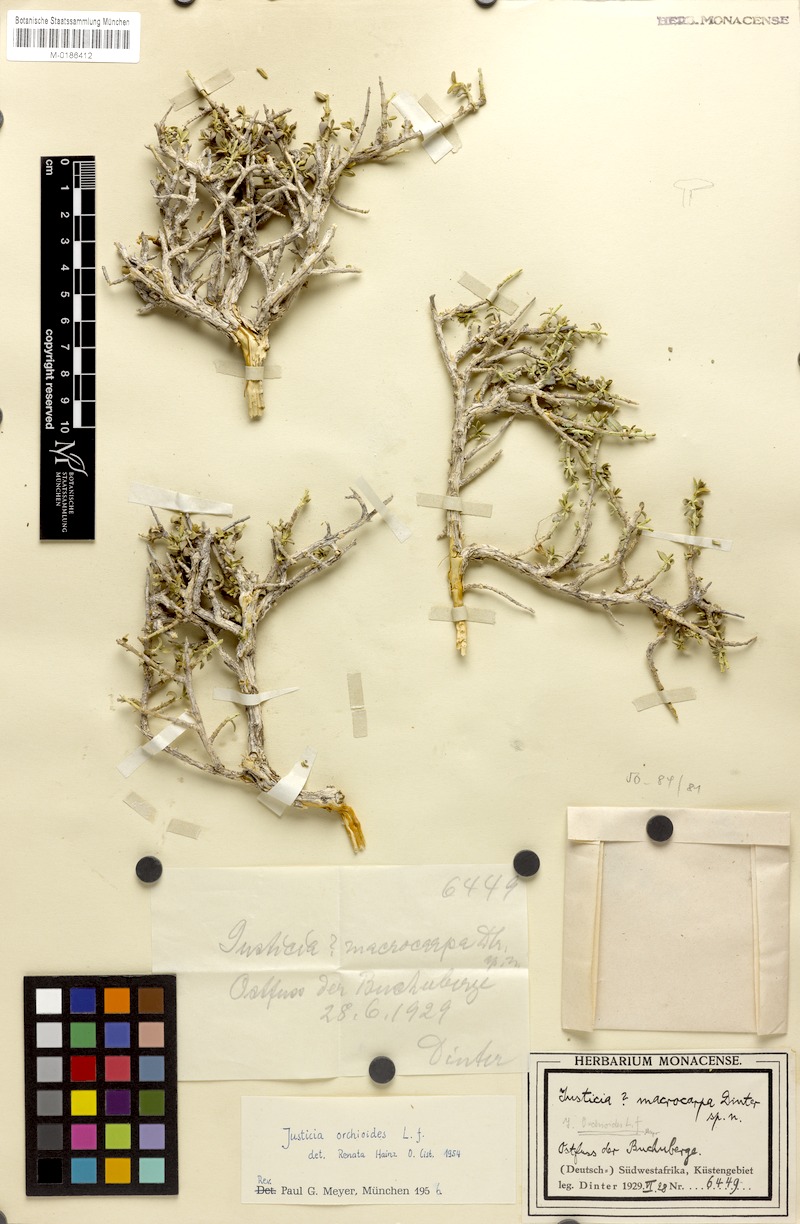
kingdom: Plantae
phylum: Tracheophyta
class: Magnoliopsida
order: Lamiales
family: Acanthaceae
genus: Justicia
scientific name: Justicia orchioides
